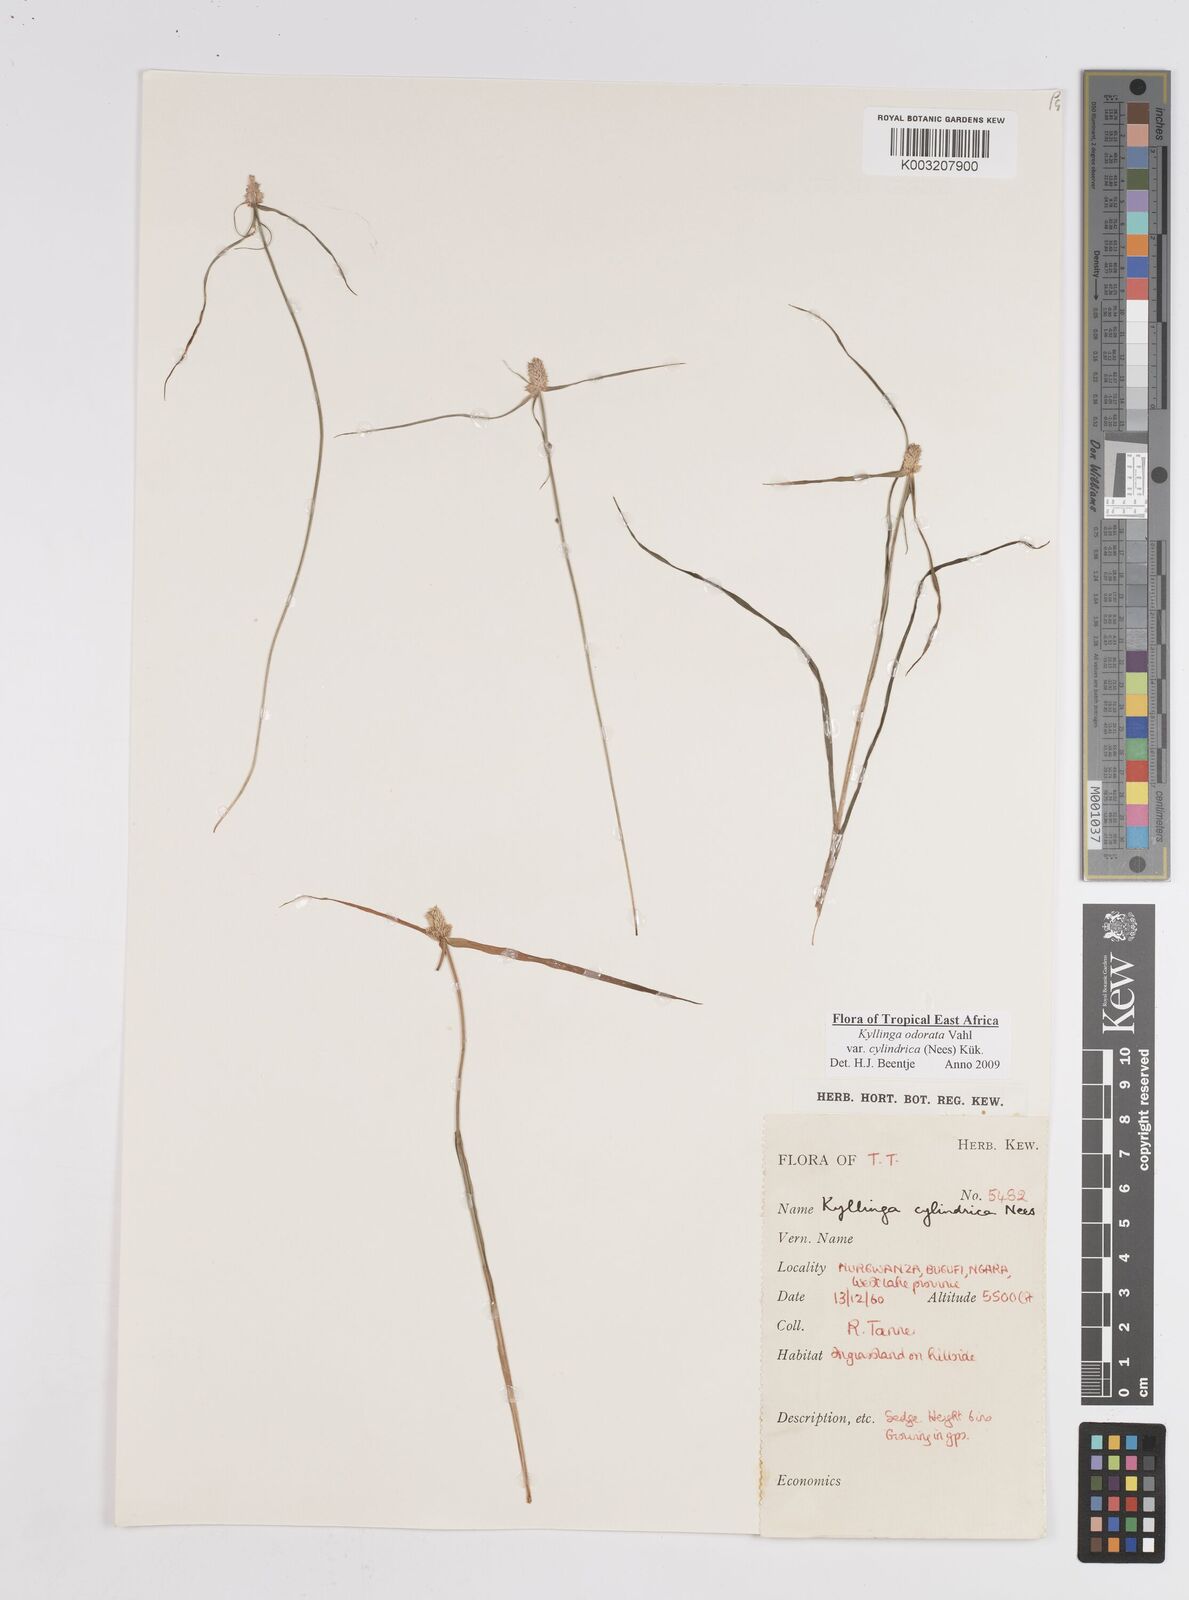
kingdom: Plantae
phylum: Tracheophyta
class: Liliopsida
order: Poales
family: Cyperaceae
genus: Cyperus
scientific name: Cyperus
